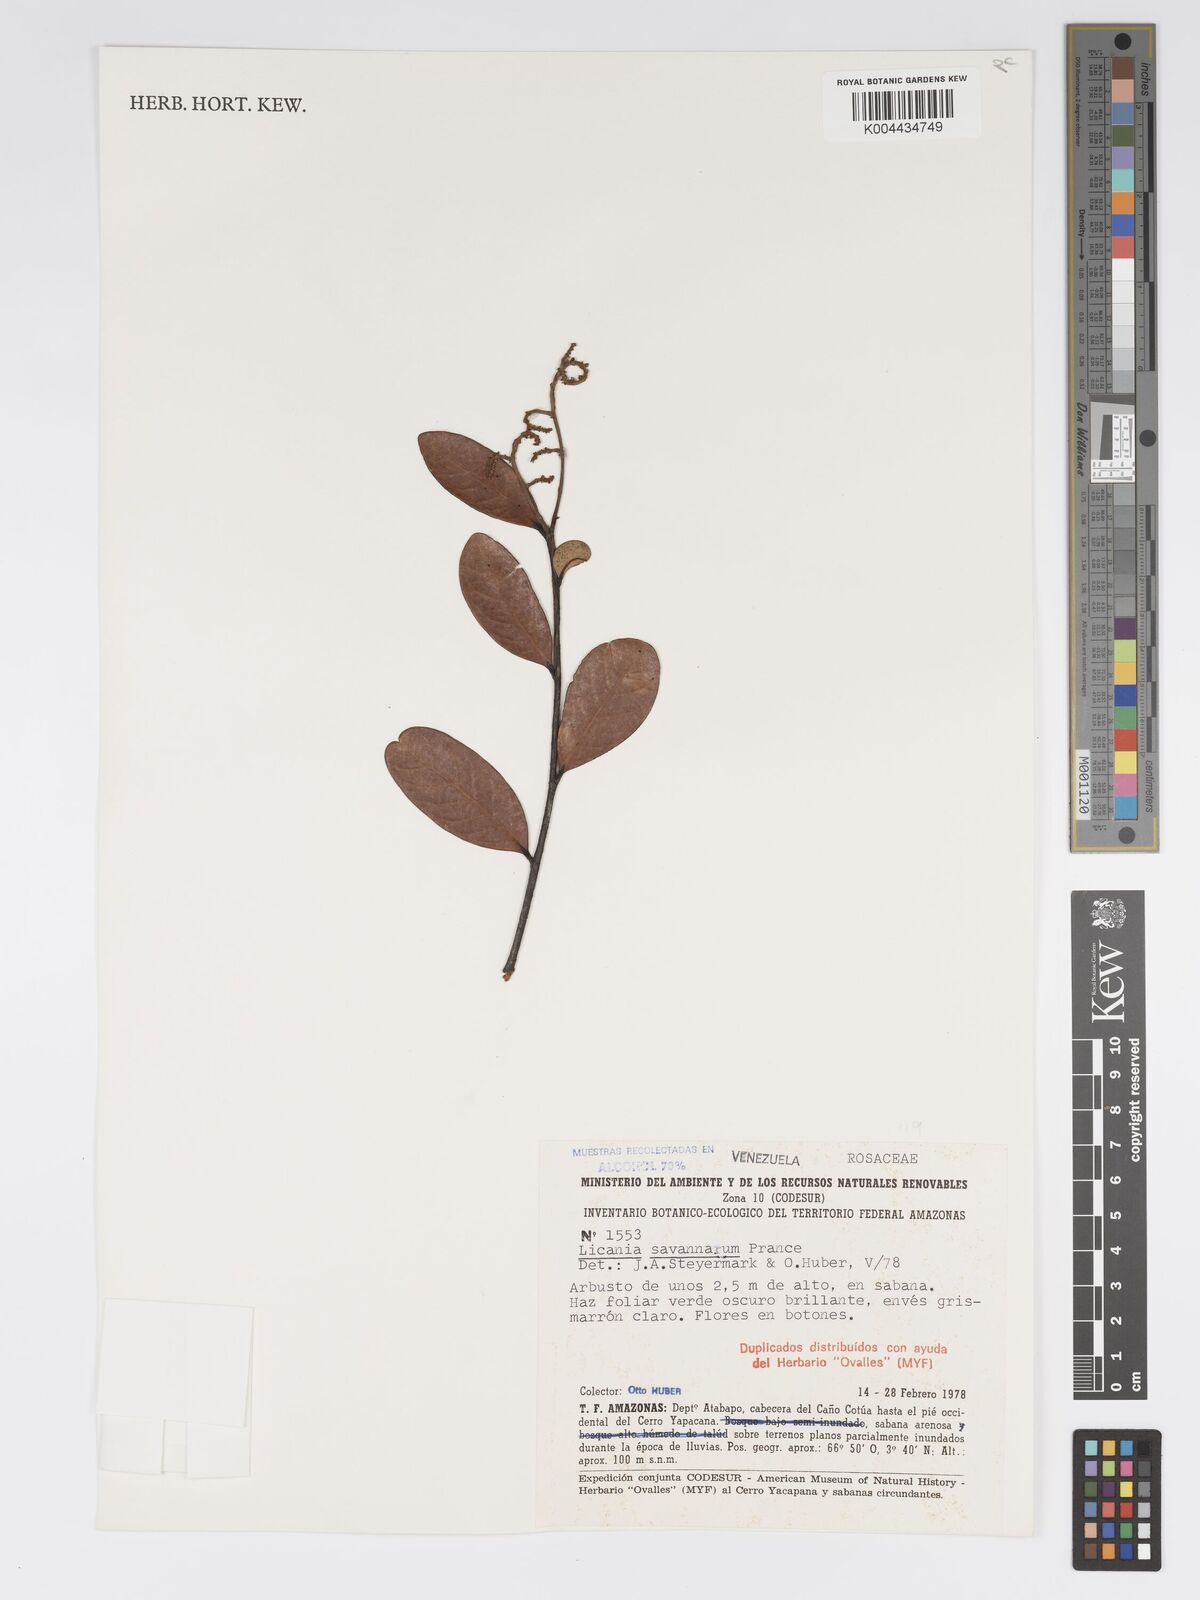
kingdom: Plantae
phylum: Tracheophyta
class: Magnoliopsida
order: Malpighiales
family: Chrysobalanaceae
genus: Licania
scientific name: Licania savannarum
